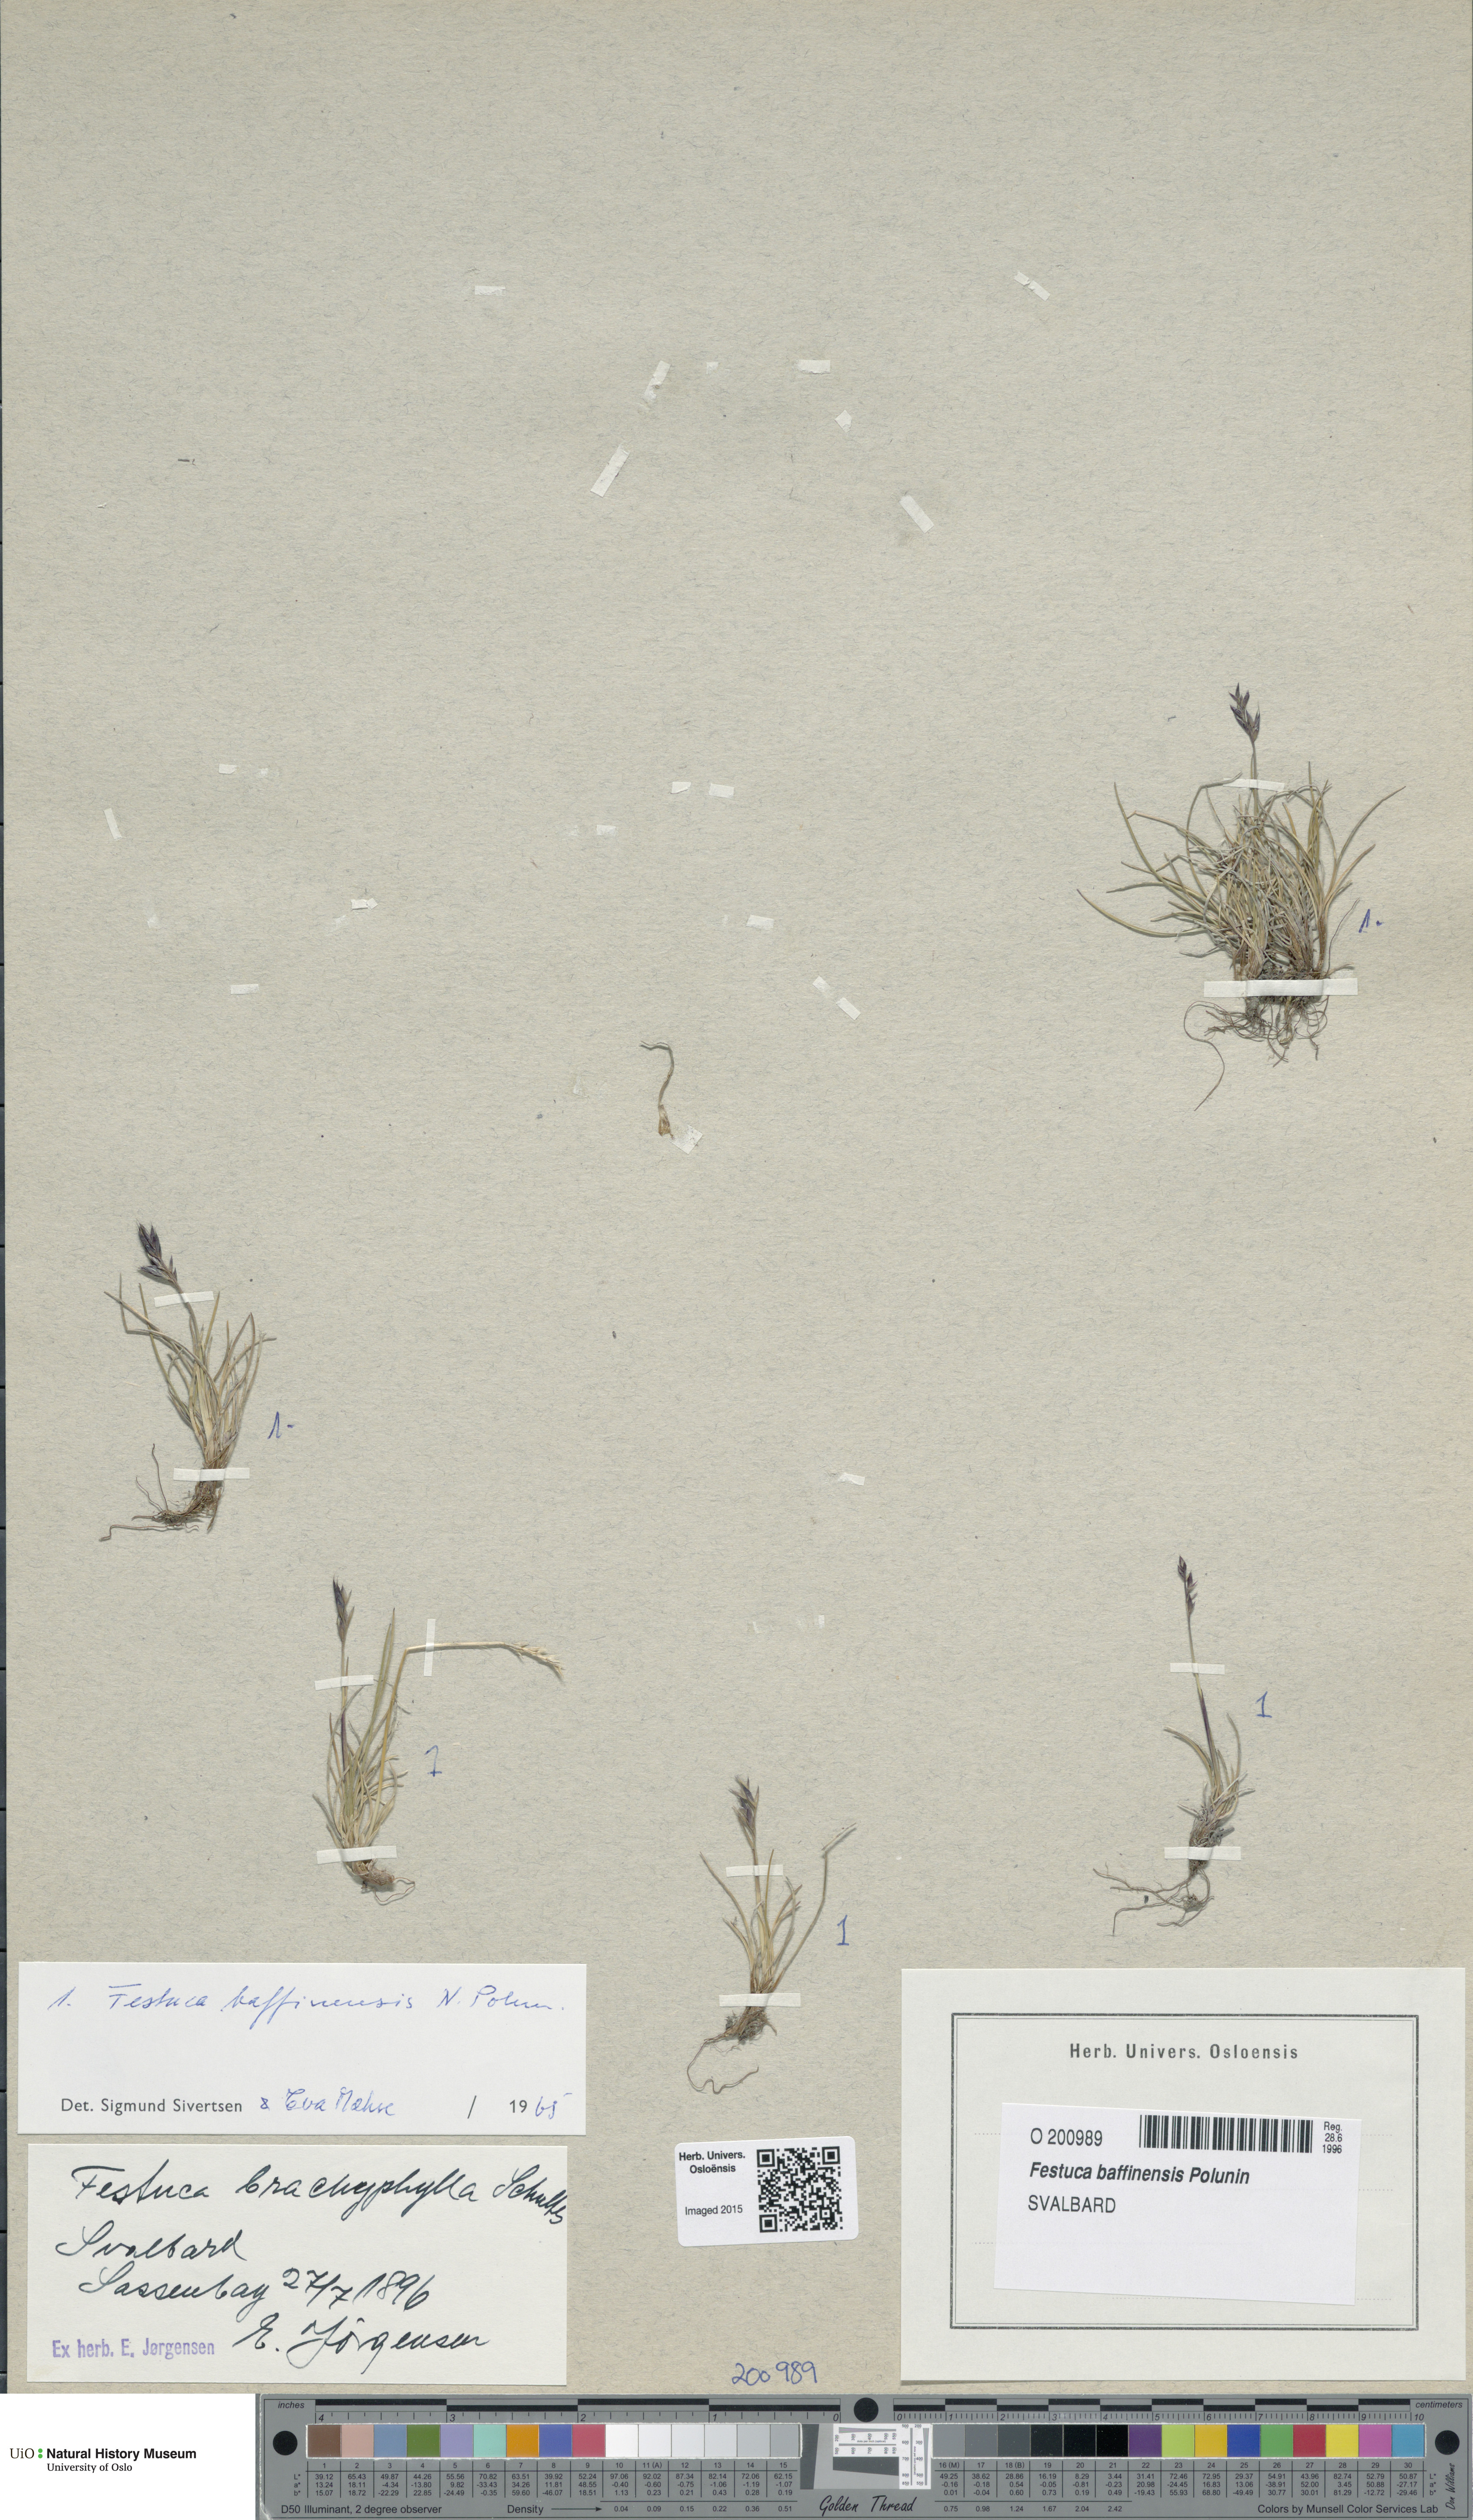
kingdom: Plantae
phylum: Tracheophyta
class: Liliopsida
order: Poales
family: Poaceae
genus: Festuca
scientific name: Festuca baffinensis
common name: Baffin island fescue
